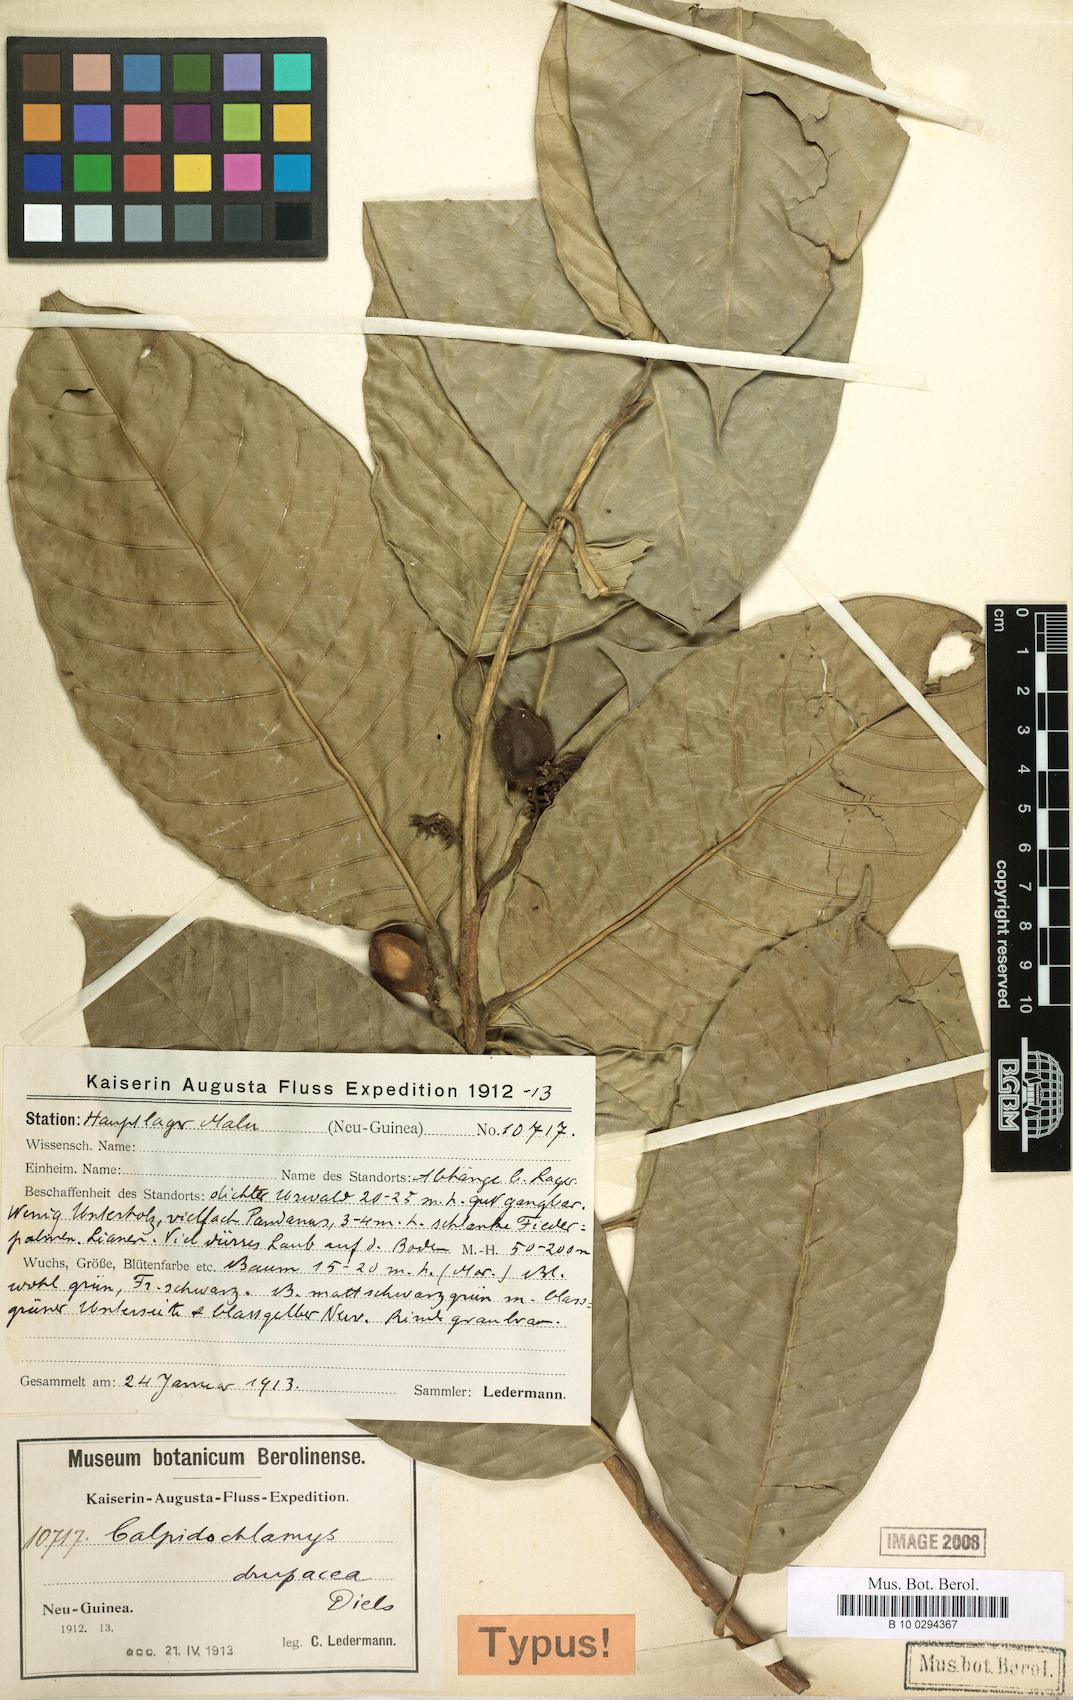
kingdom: Plantae
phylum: Tracheophyta
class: Magnoliopsida
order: Rosales
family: Moraceae
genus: Paratrophis
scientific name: Paratrophis philippinensis
